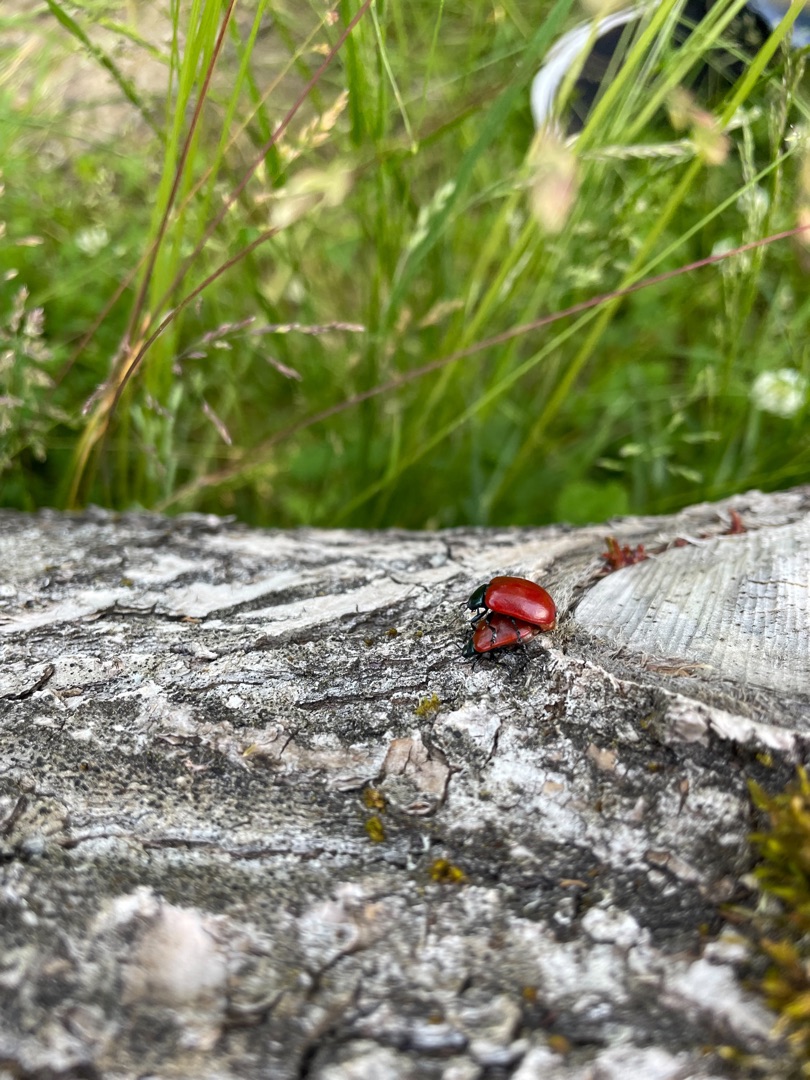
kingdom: Animalia
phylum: Arthropoda
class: Insecta
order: Coleoptera
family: Chrysomelidae
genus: Chrysomela
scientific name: Chrysomela populi
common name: Poppelbladbille
